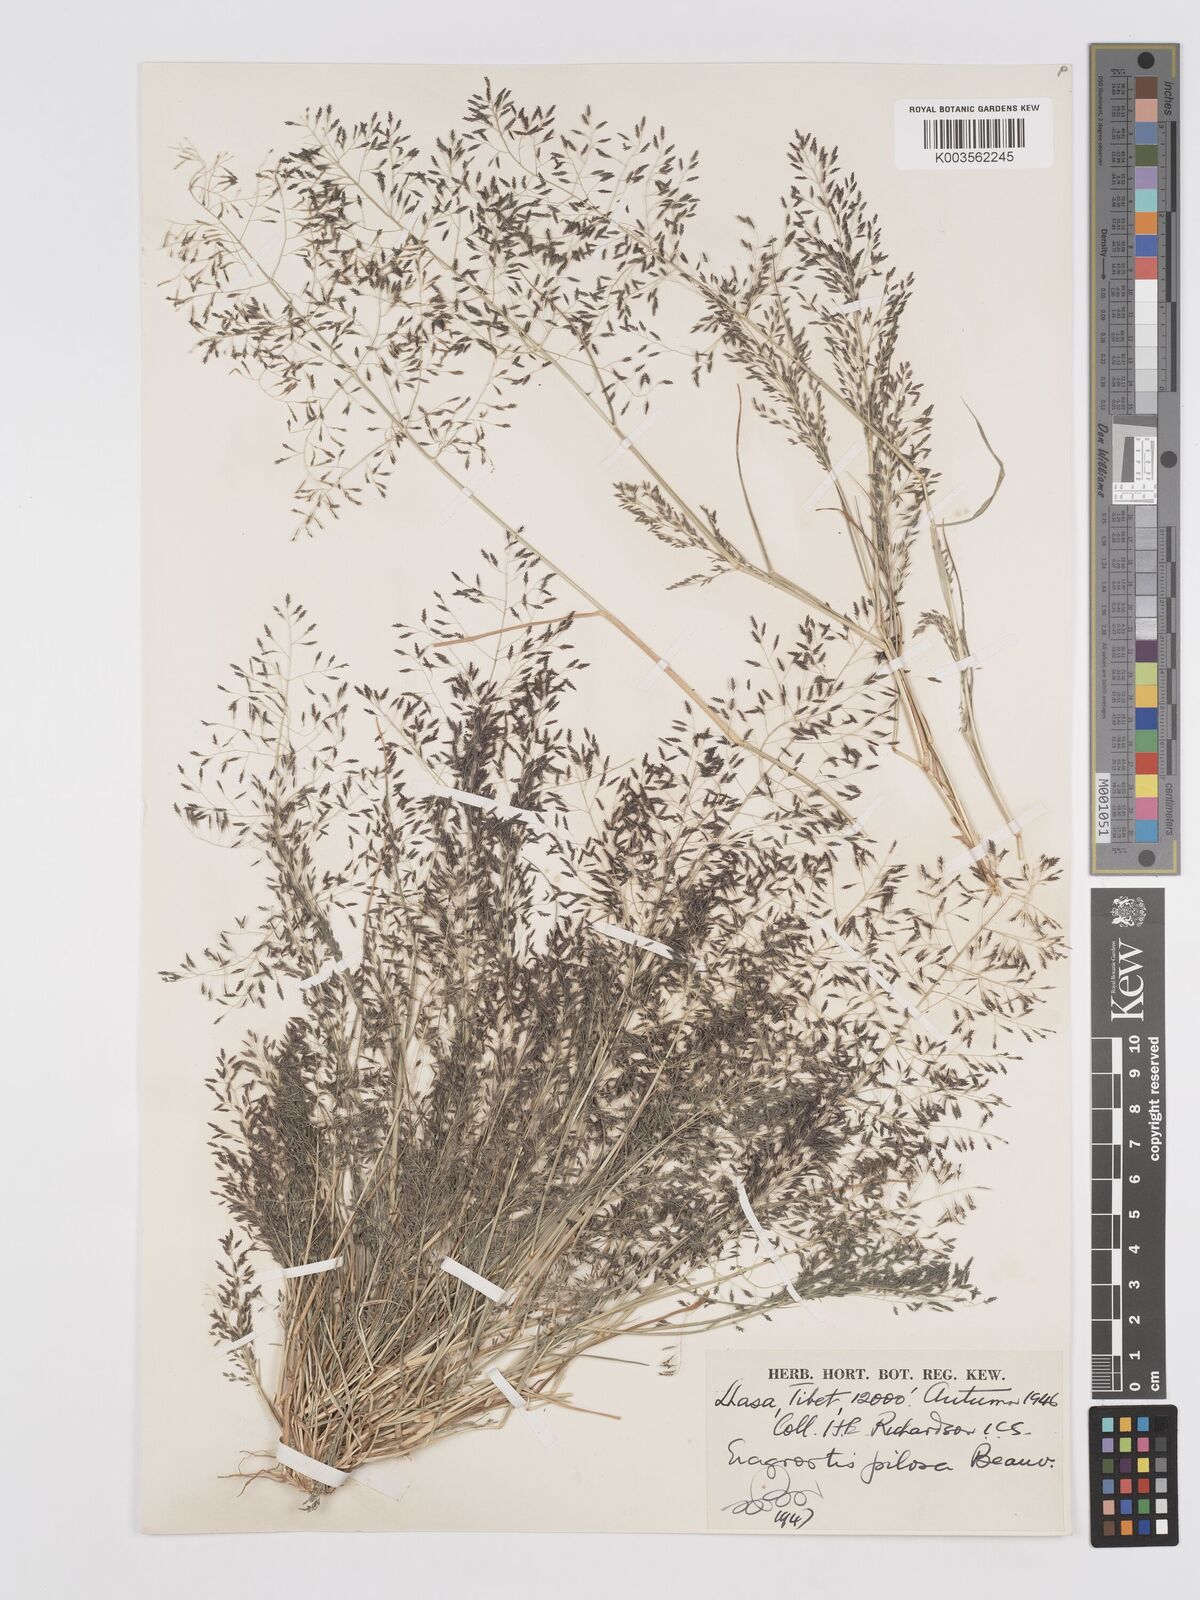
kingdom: Plantae
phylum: Tracheophyta
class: Liliopsida
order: Poales
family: Poaceae
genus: Eragrostis
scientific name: Eragrostis pilosa
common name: Indian lovegrass
